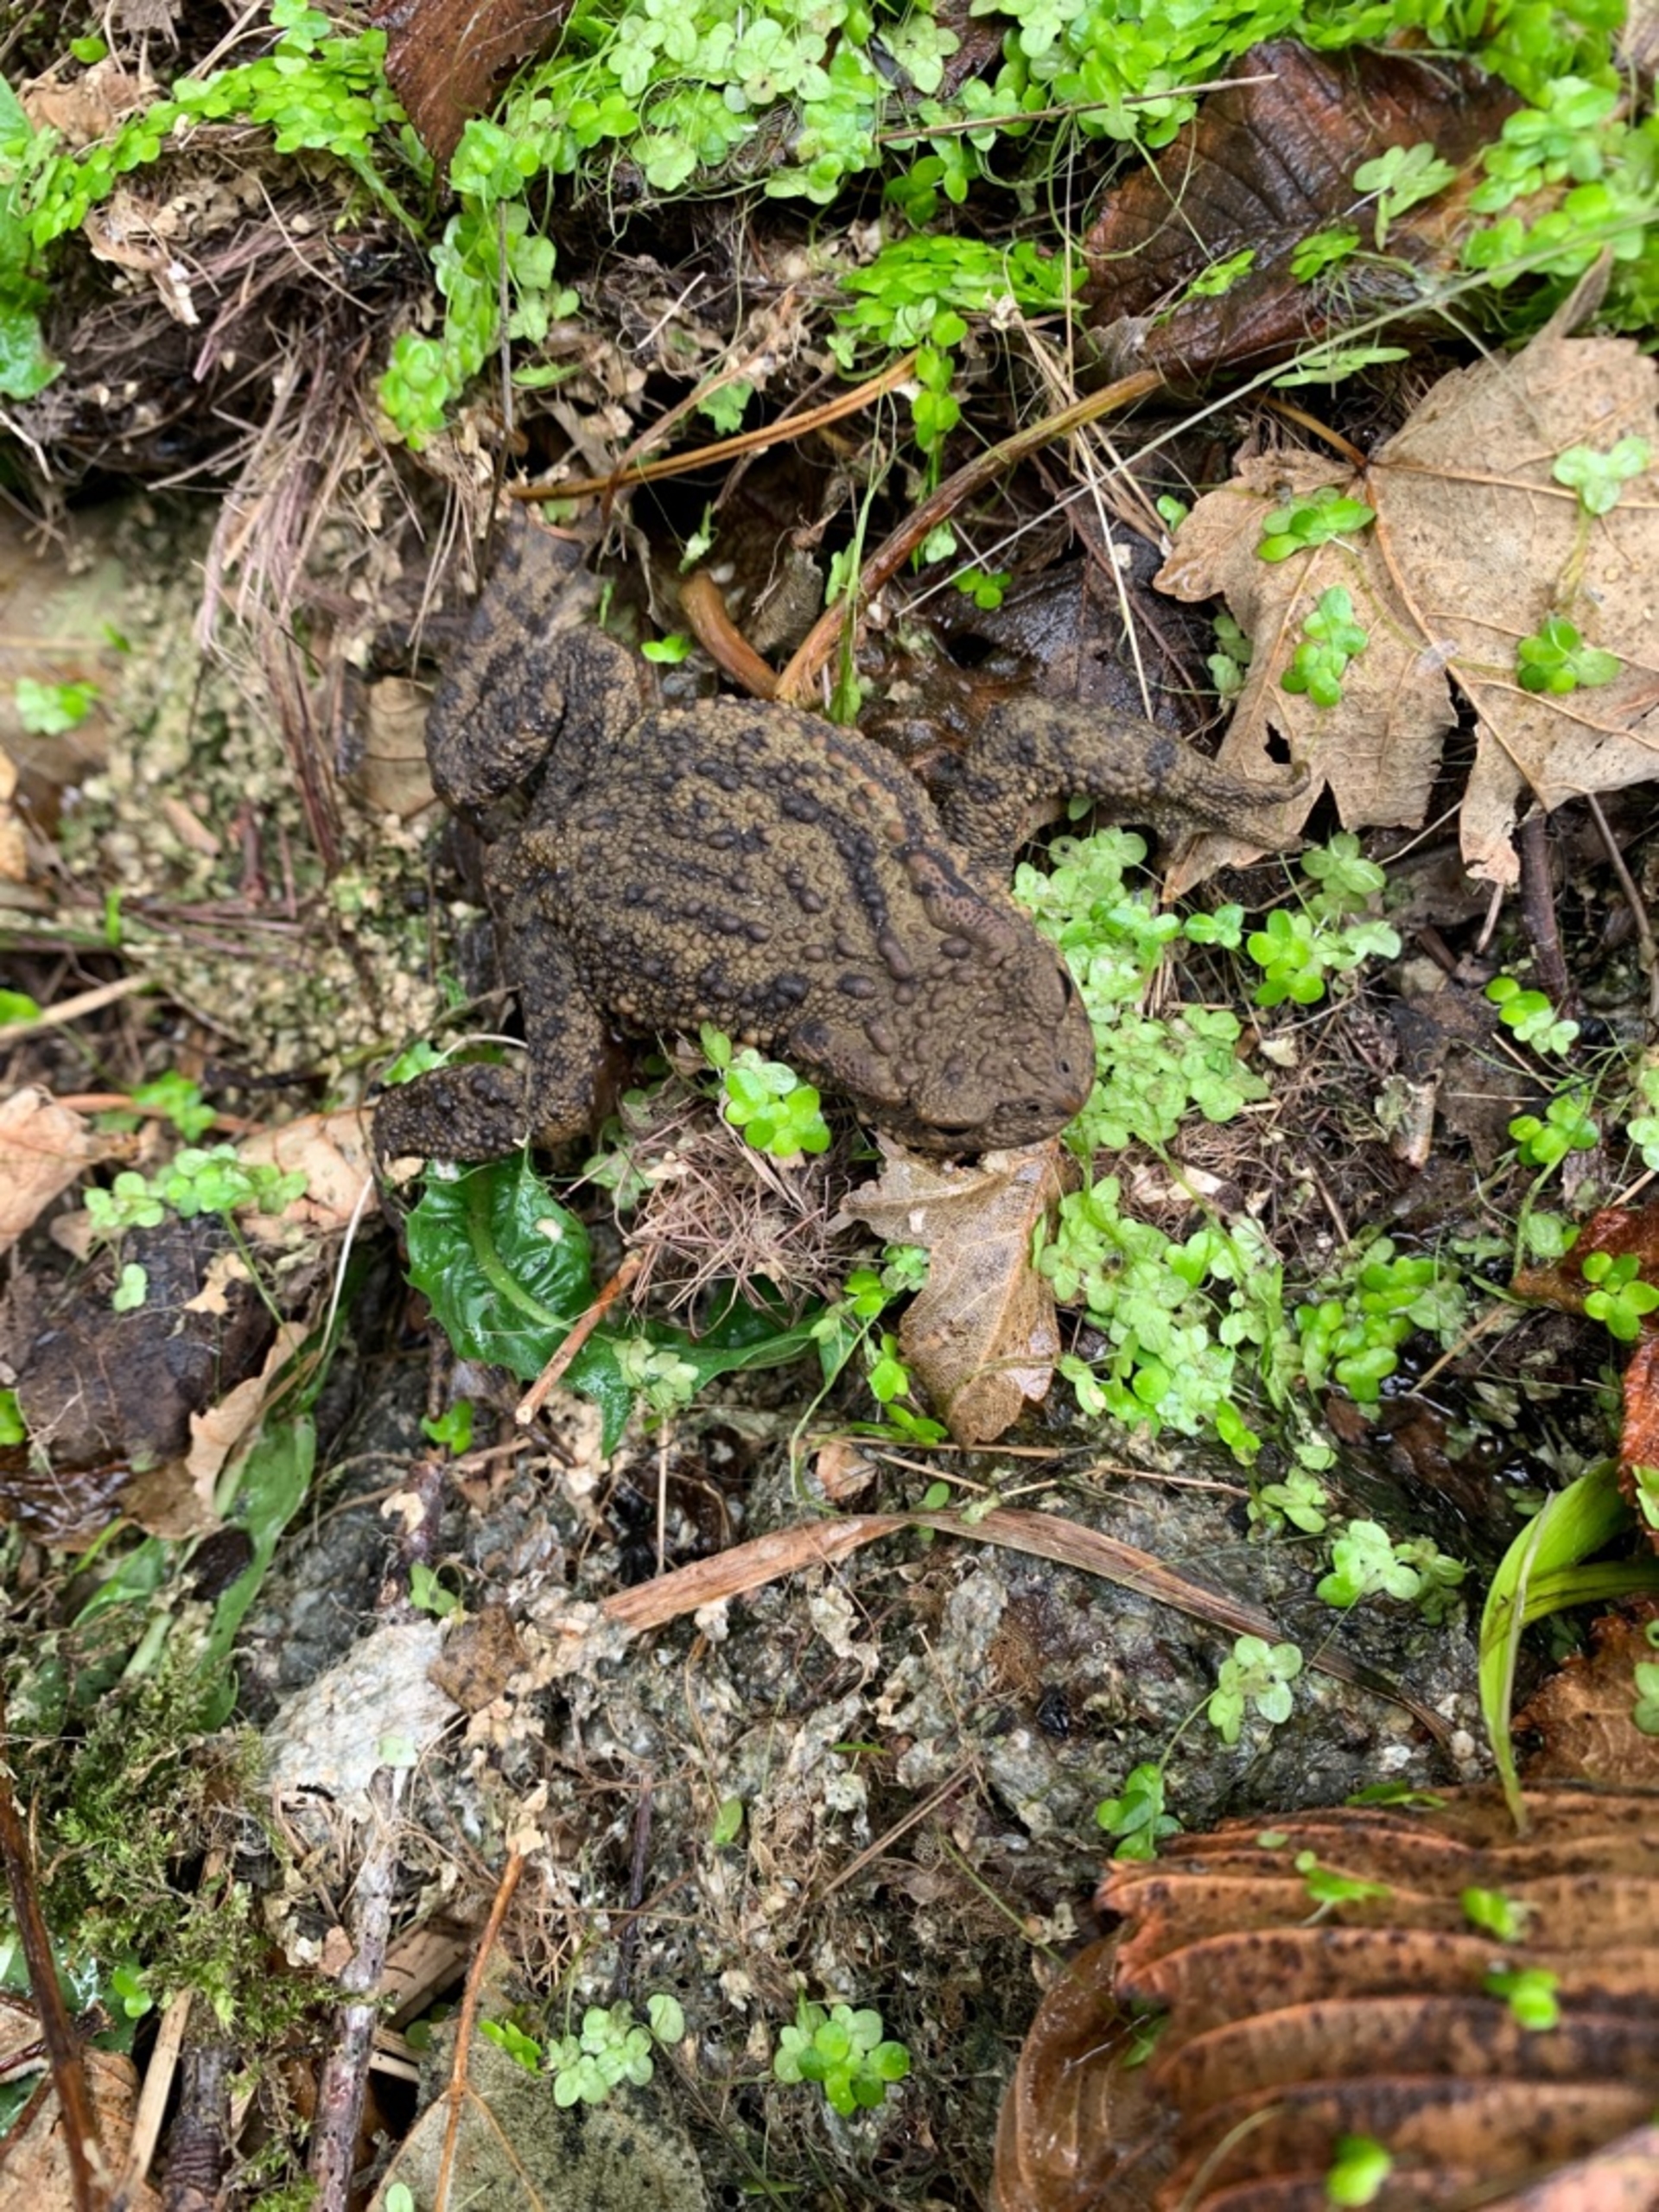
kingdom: Animalia
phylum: Chordata
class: Amphibia
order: Anura
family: Bufonidae
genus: Bufo
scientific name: Bufo bufo
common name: Skrubtudse
